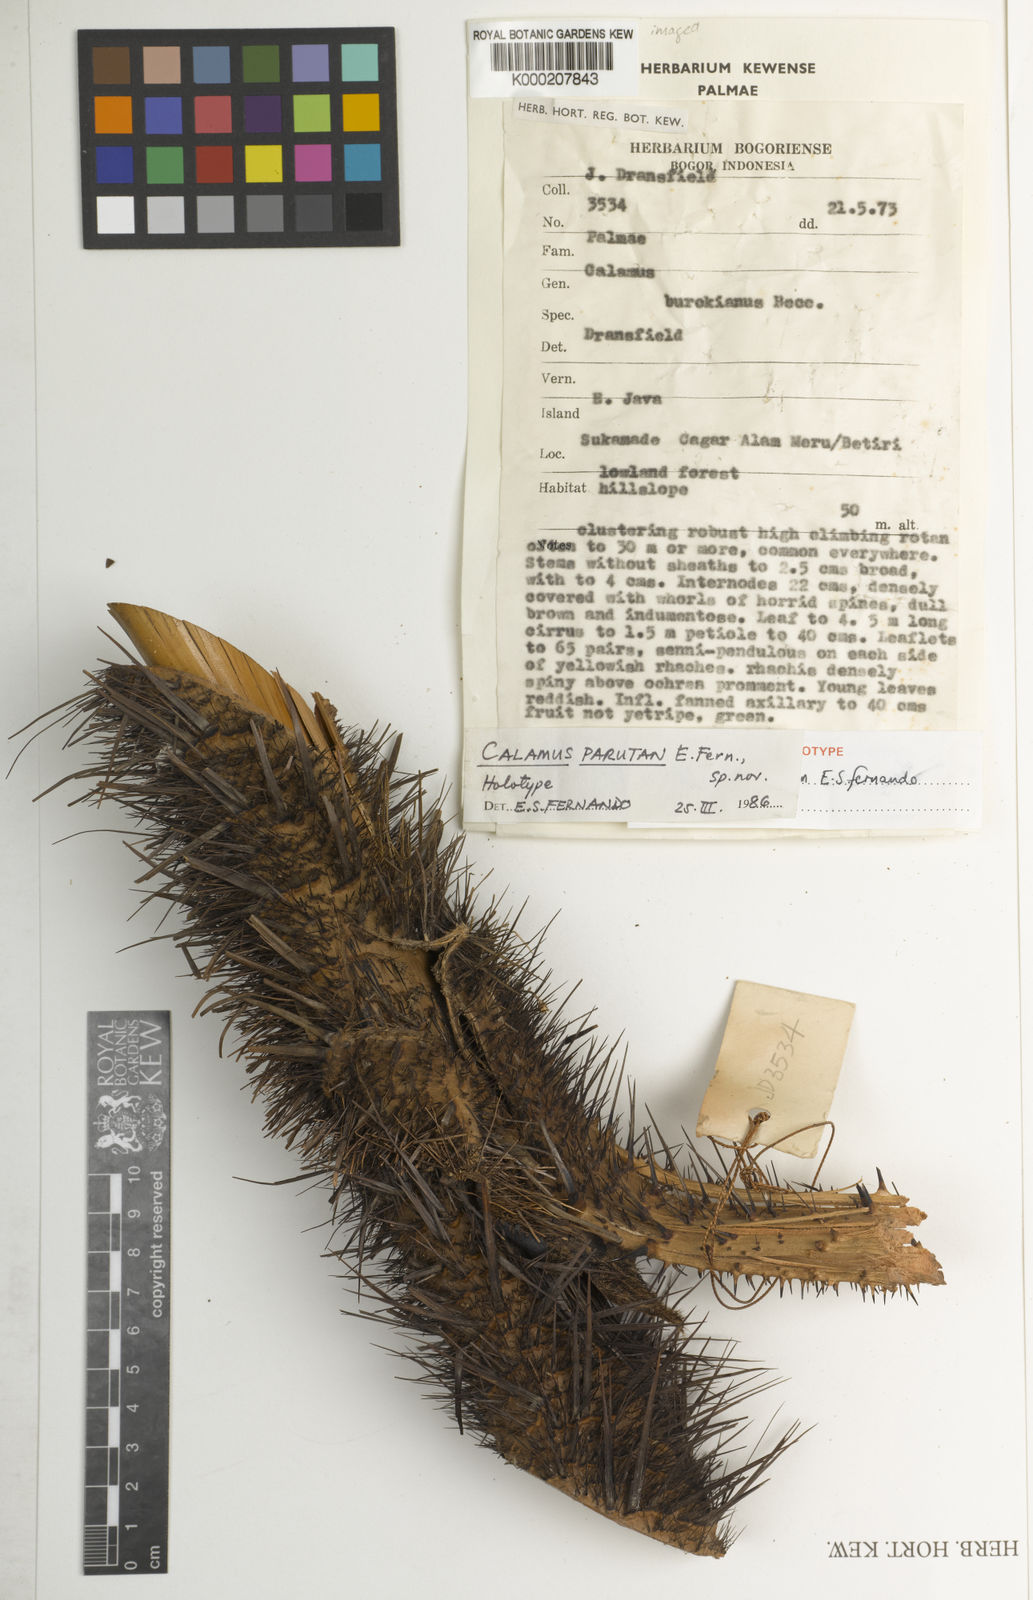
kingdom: Plantae
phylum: Tracheophyta
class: Liliopsida
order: Arecales
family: Arecaceae
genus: Calamus
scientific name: Calamus parutan
